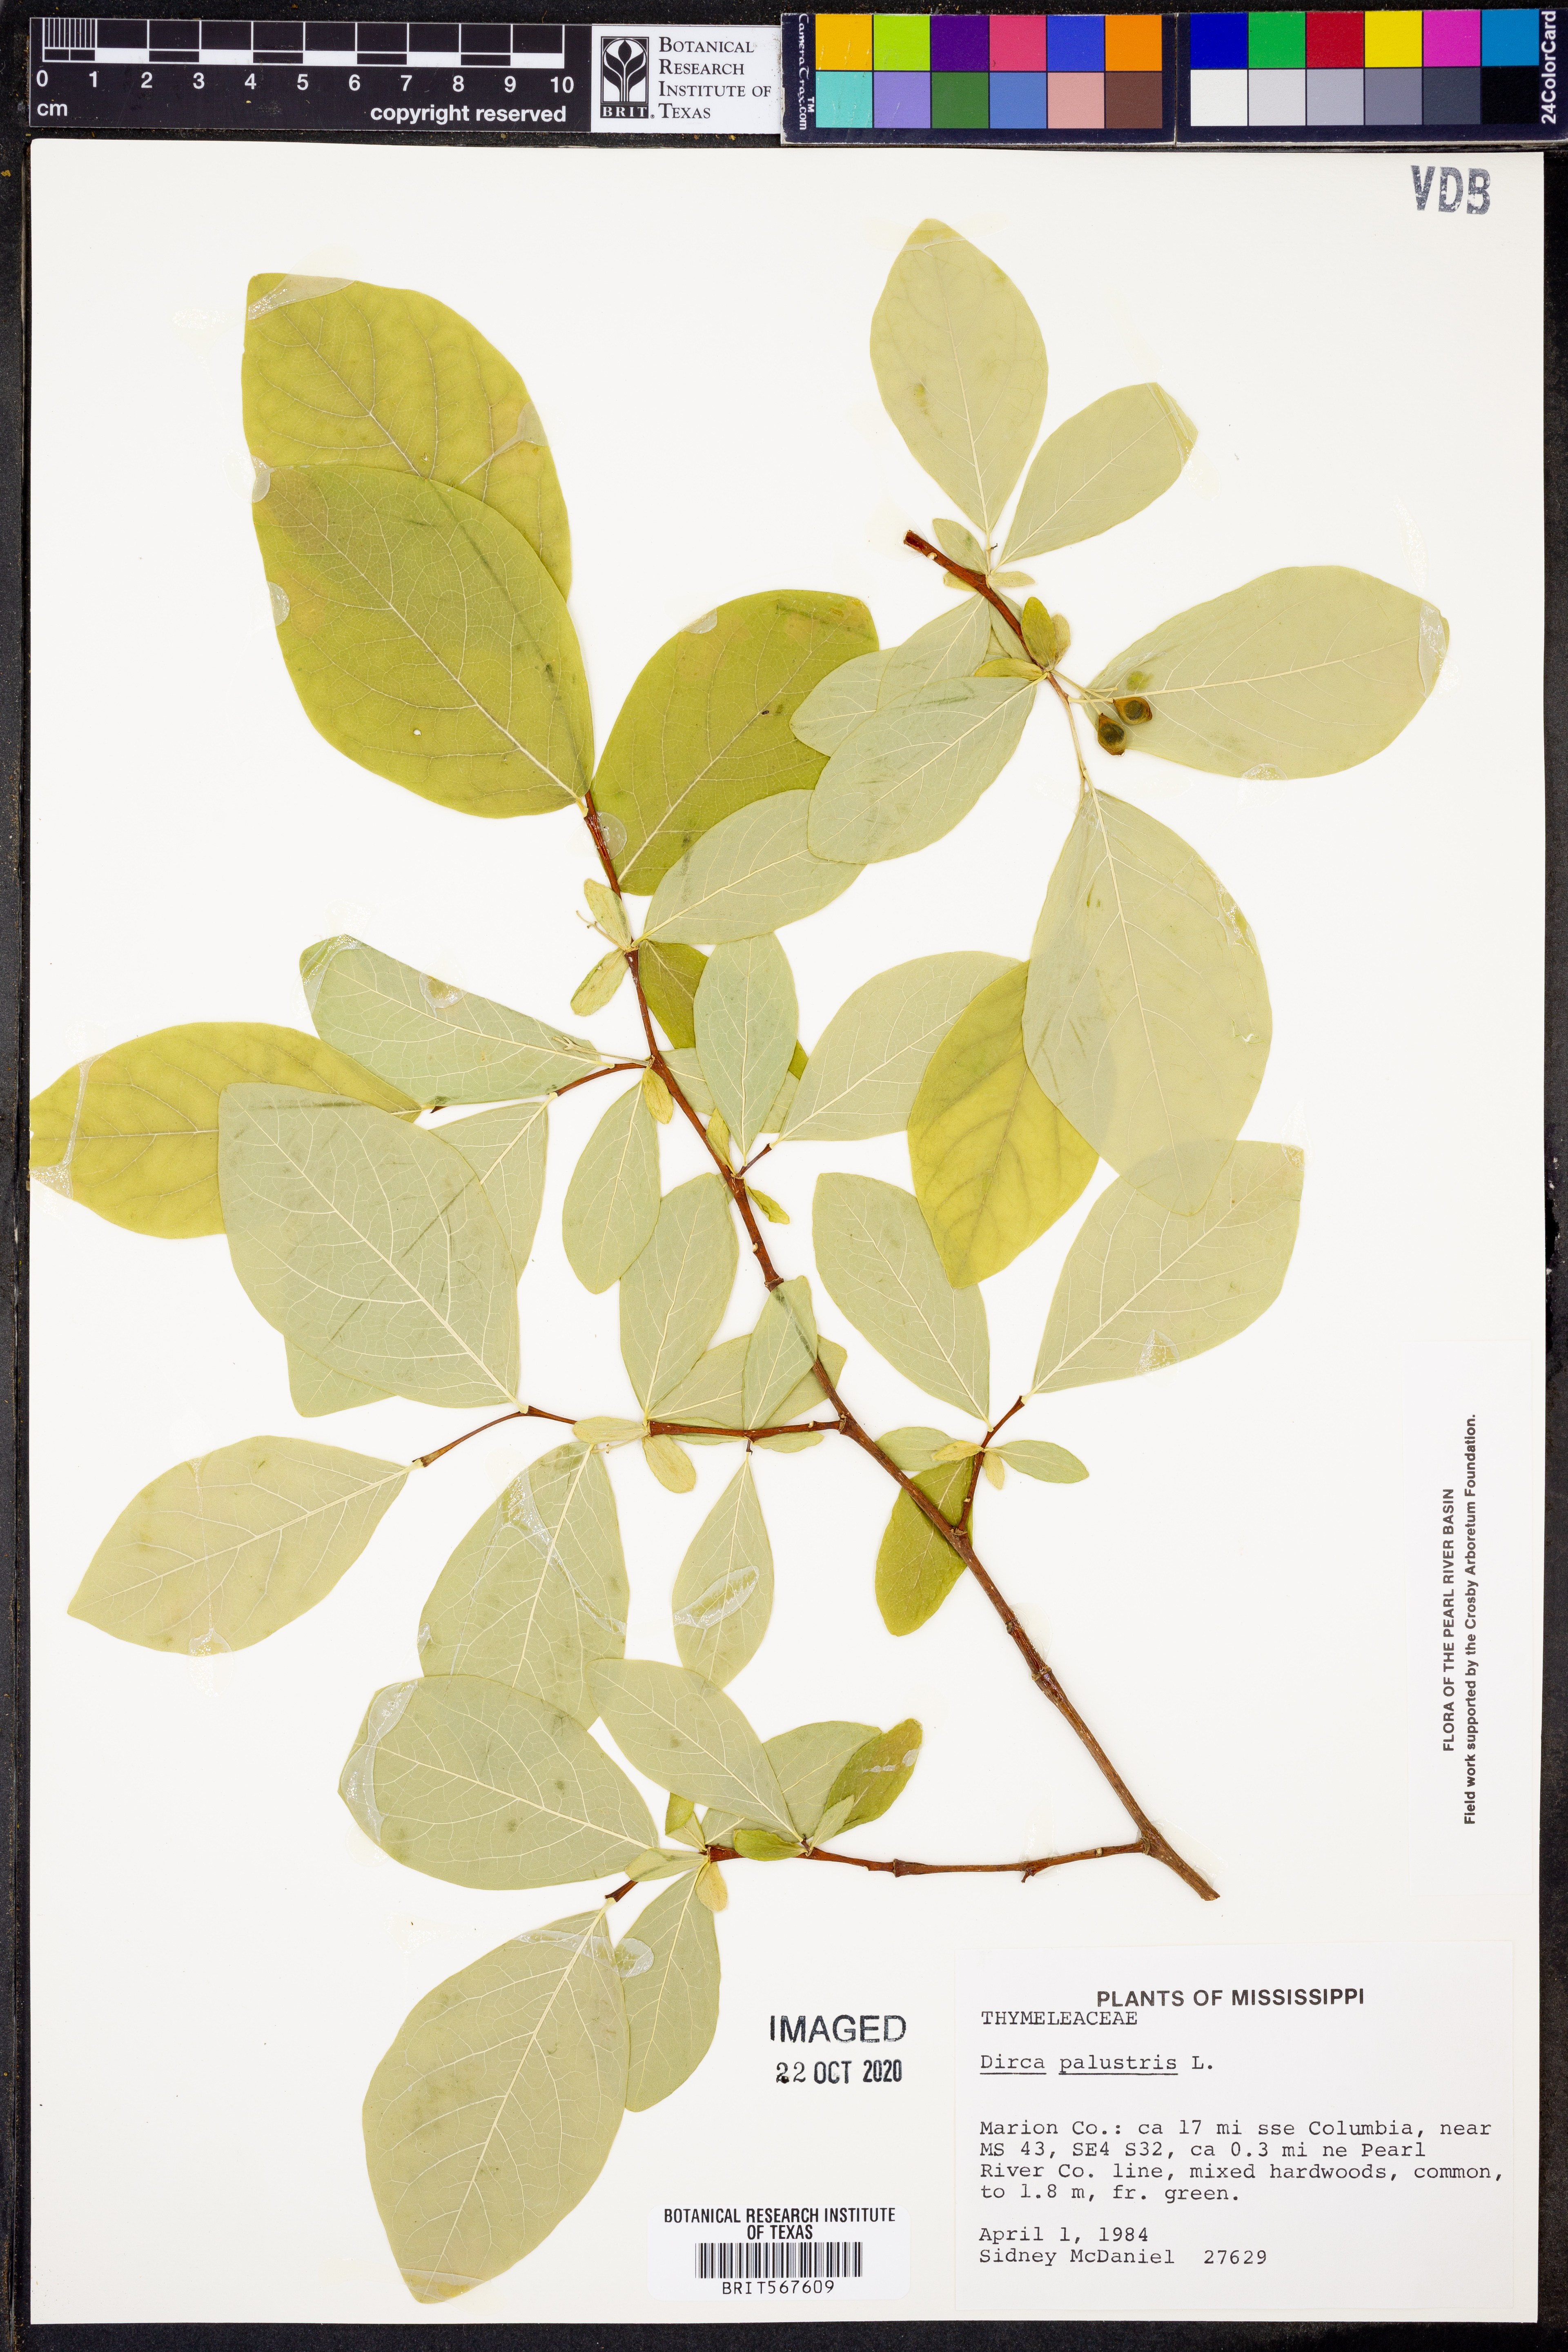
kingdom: Plantae
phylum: Tracheophyta
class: Magnoliopsida
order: Malvales
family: Thymelaeaceae
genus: Dirca
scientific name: Dirca palustris
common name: Leatherwood
